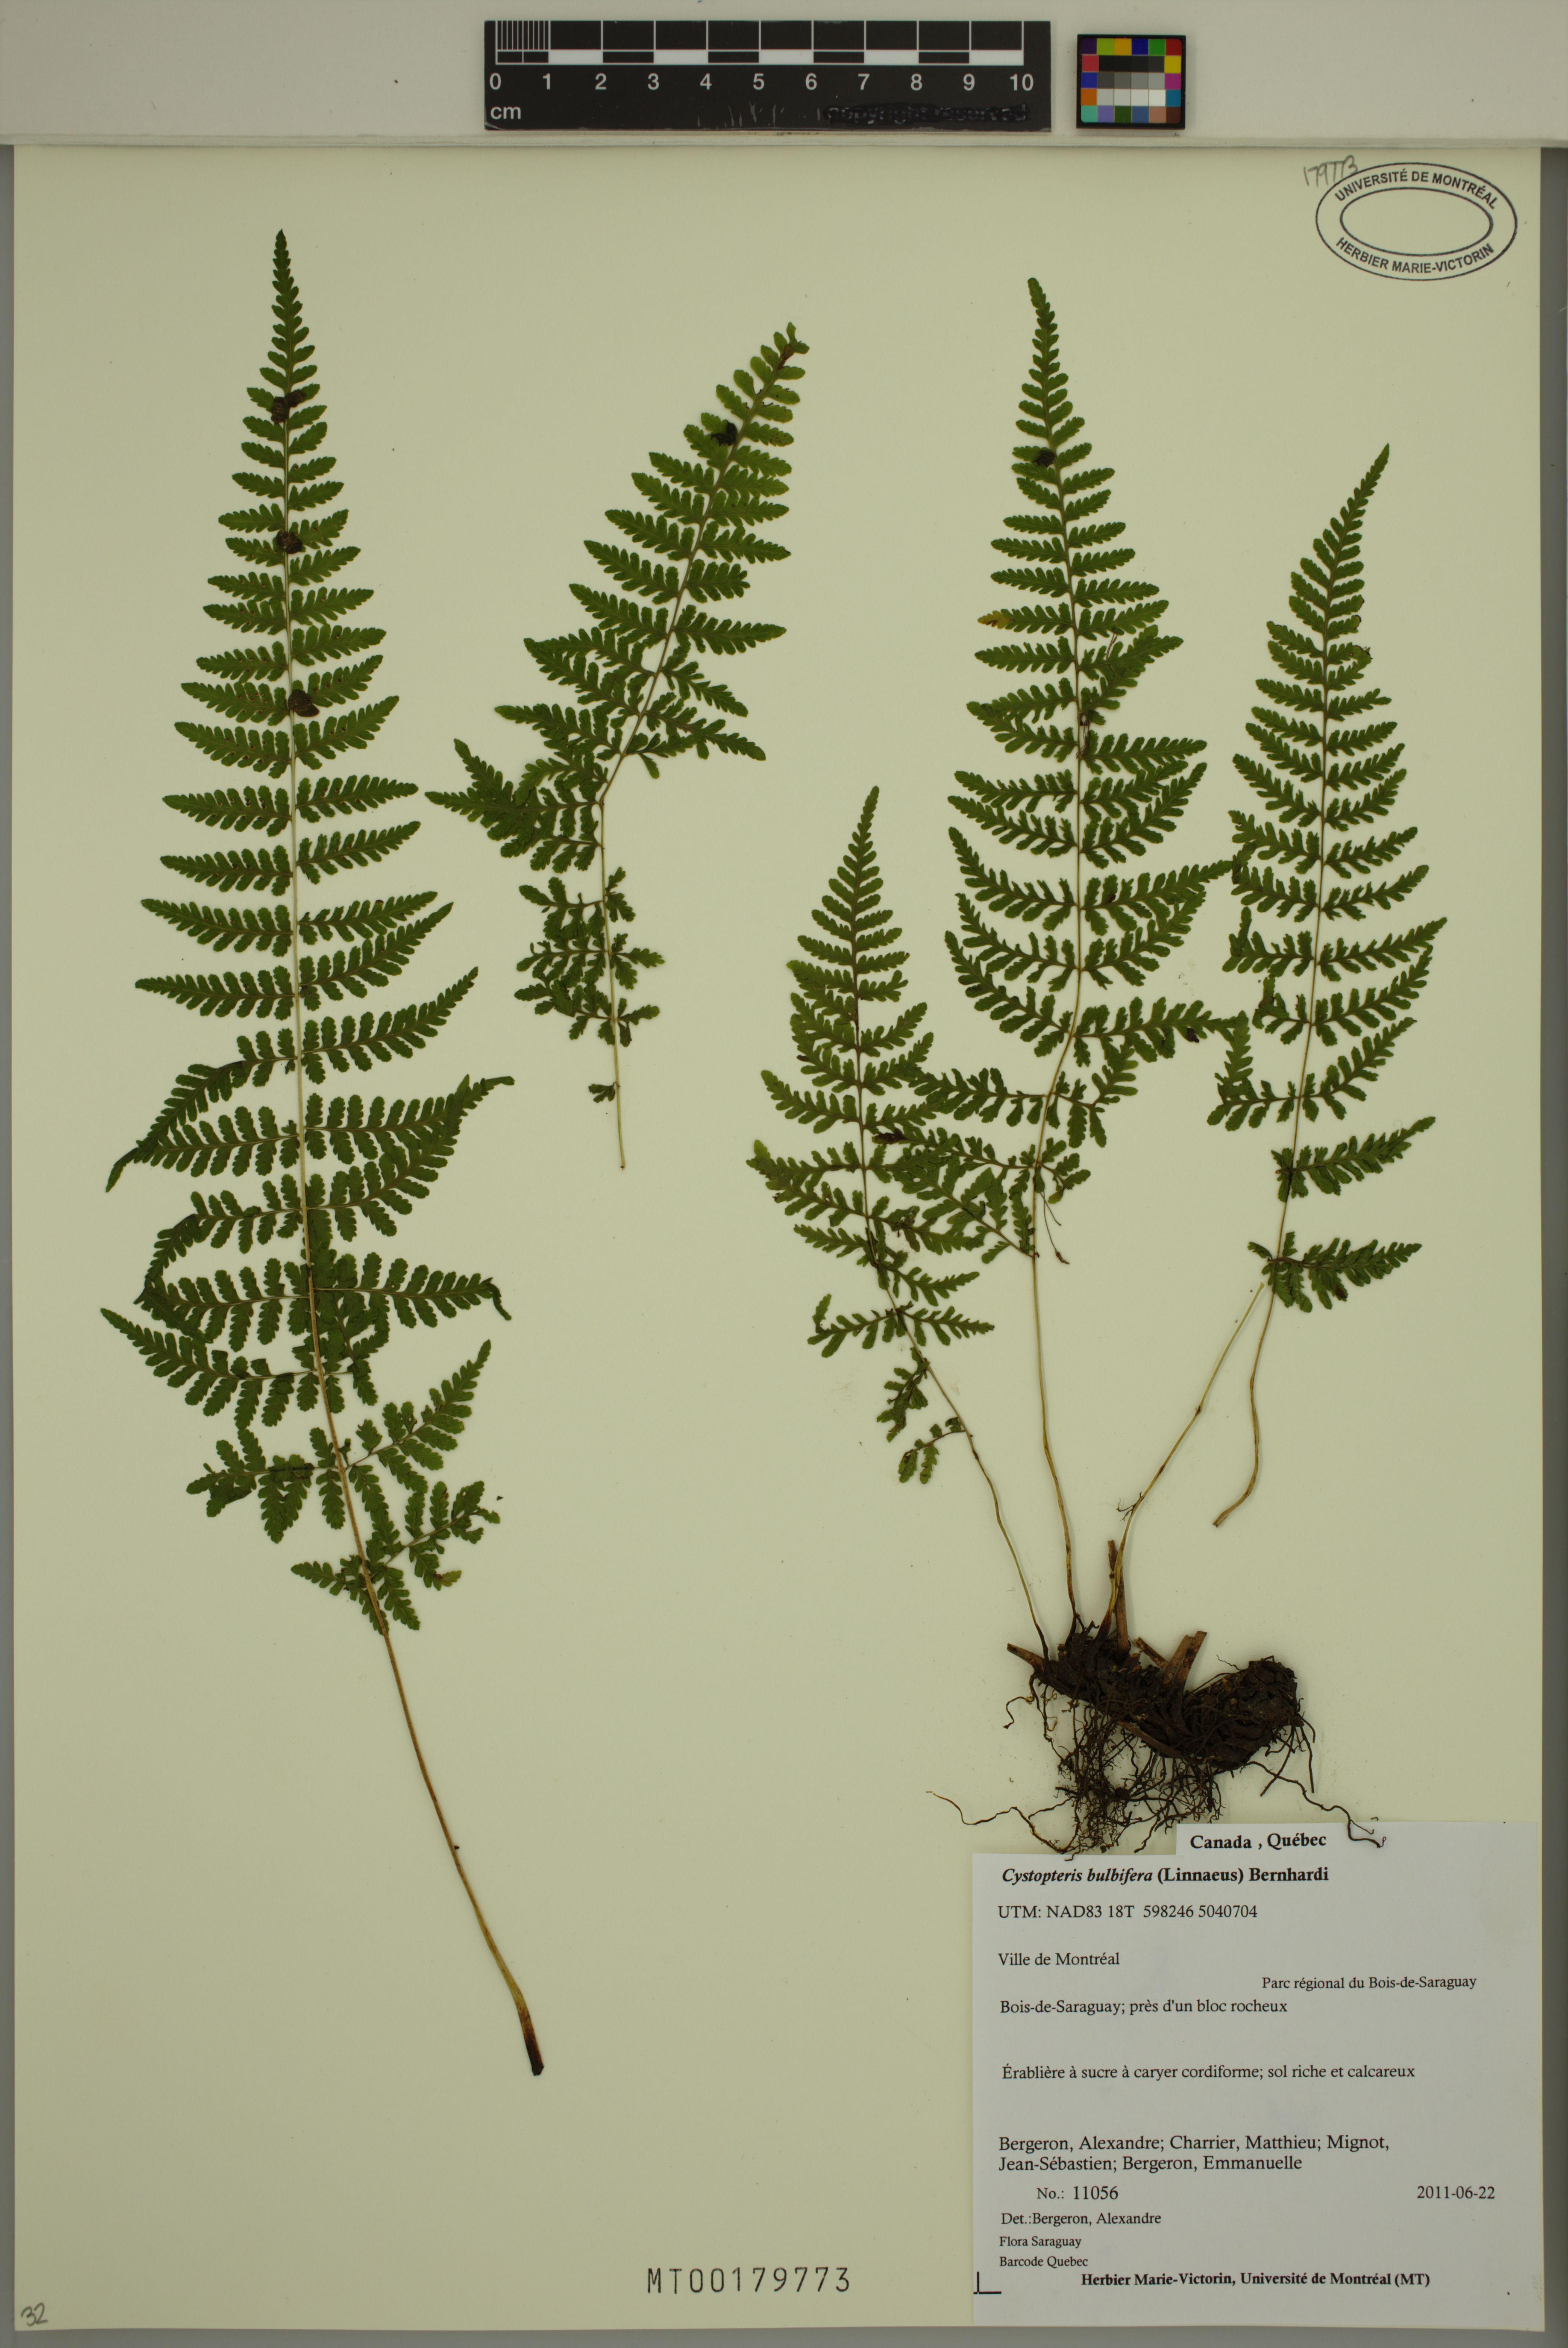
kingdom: Plantae
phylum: Tracheophyta
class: Polypodiopsida
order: Polypodiales
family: Cystopteridaceae
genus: Cystopteris
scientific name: Cystopteris bulbifera
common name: Bulblet bladder fern
